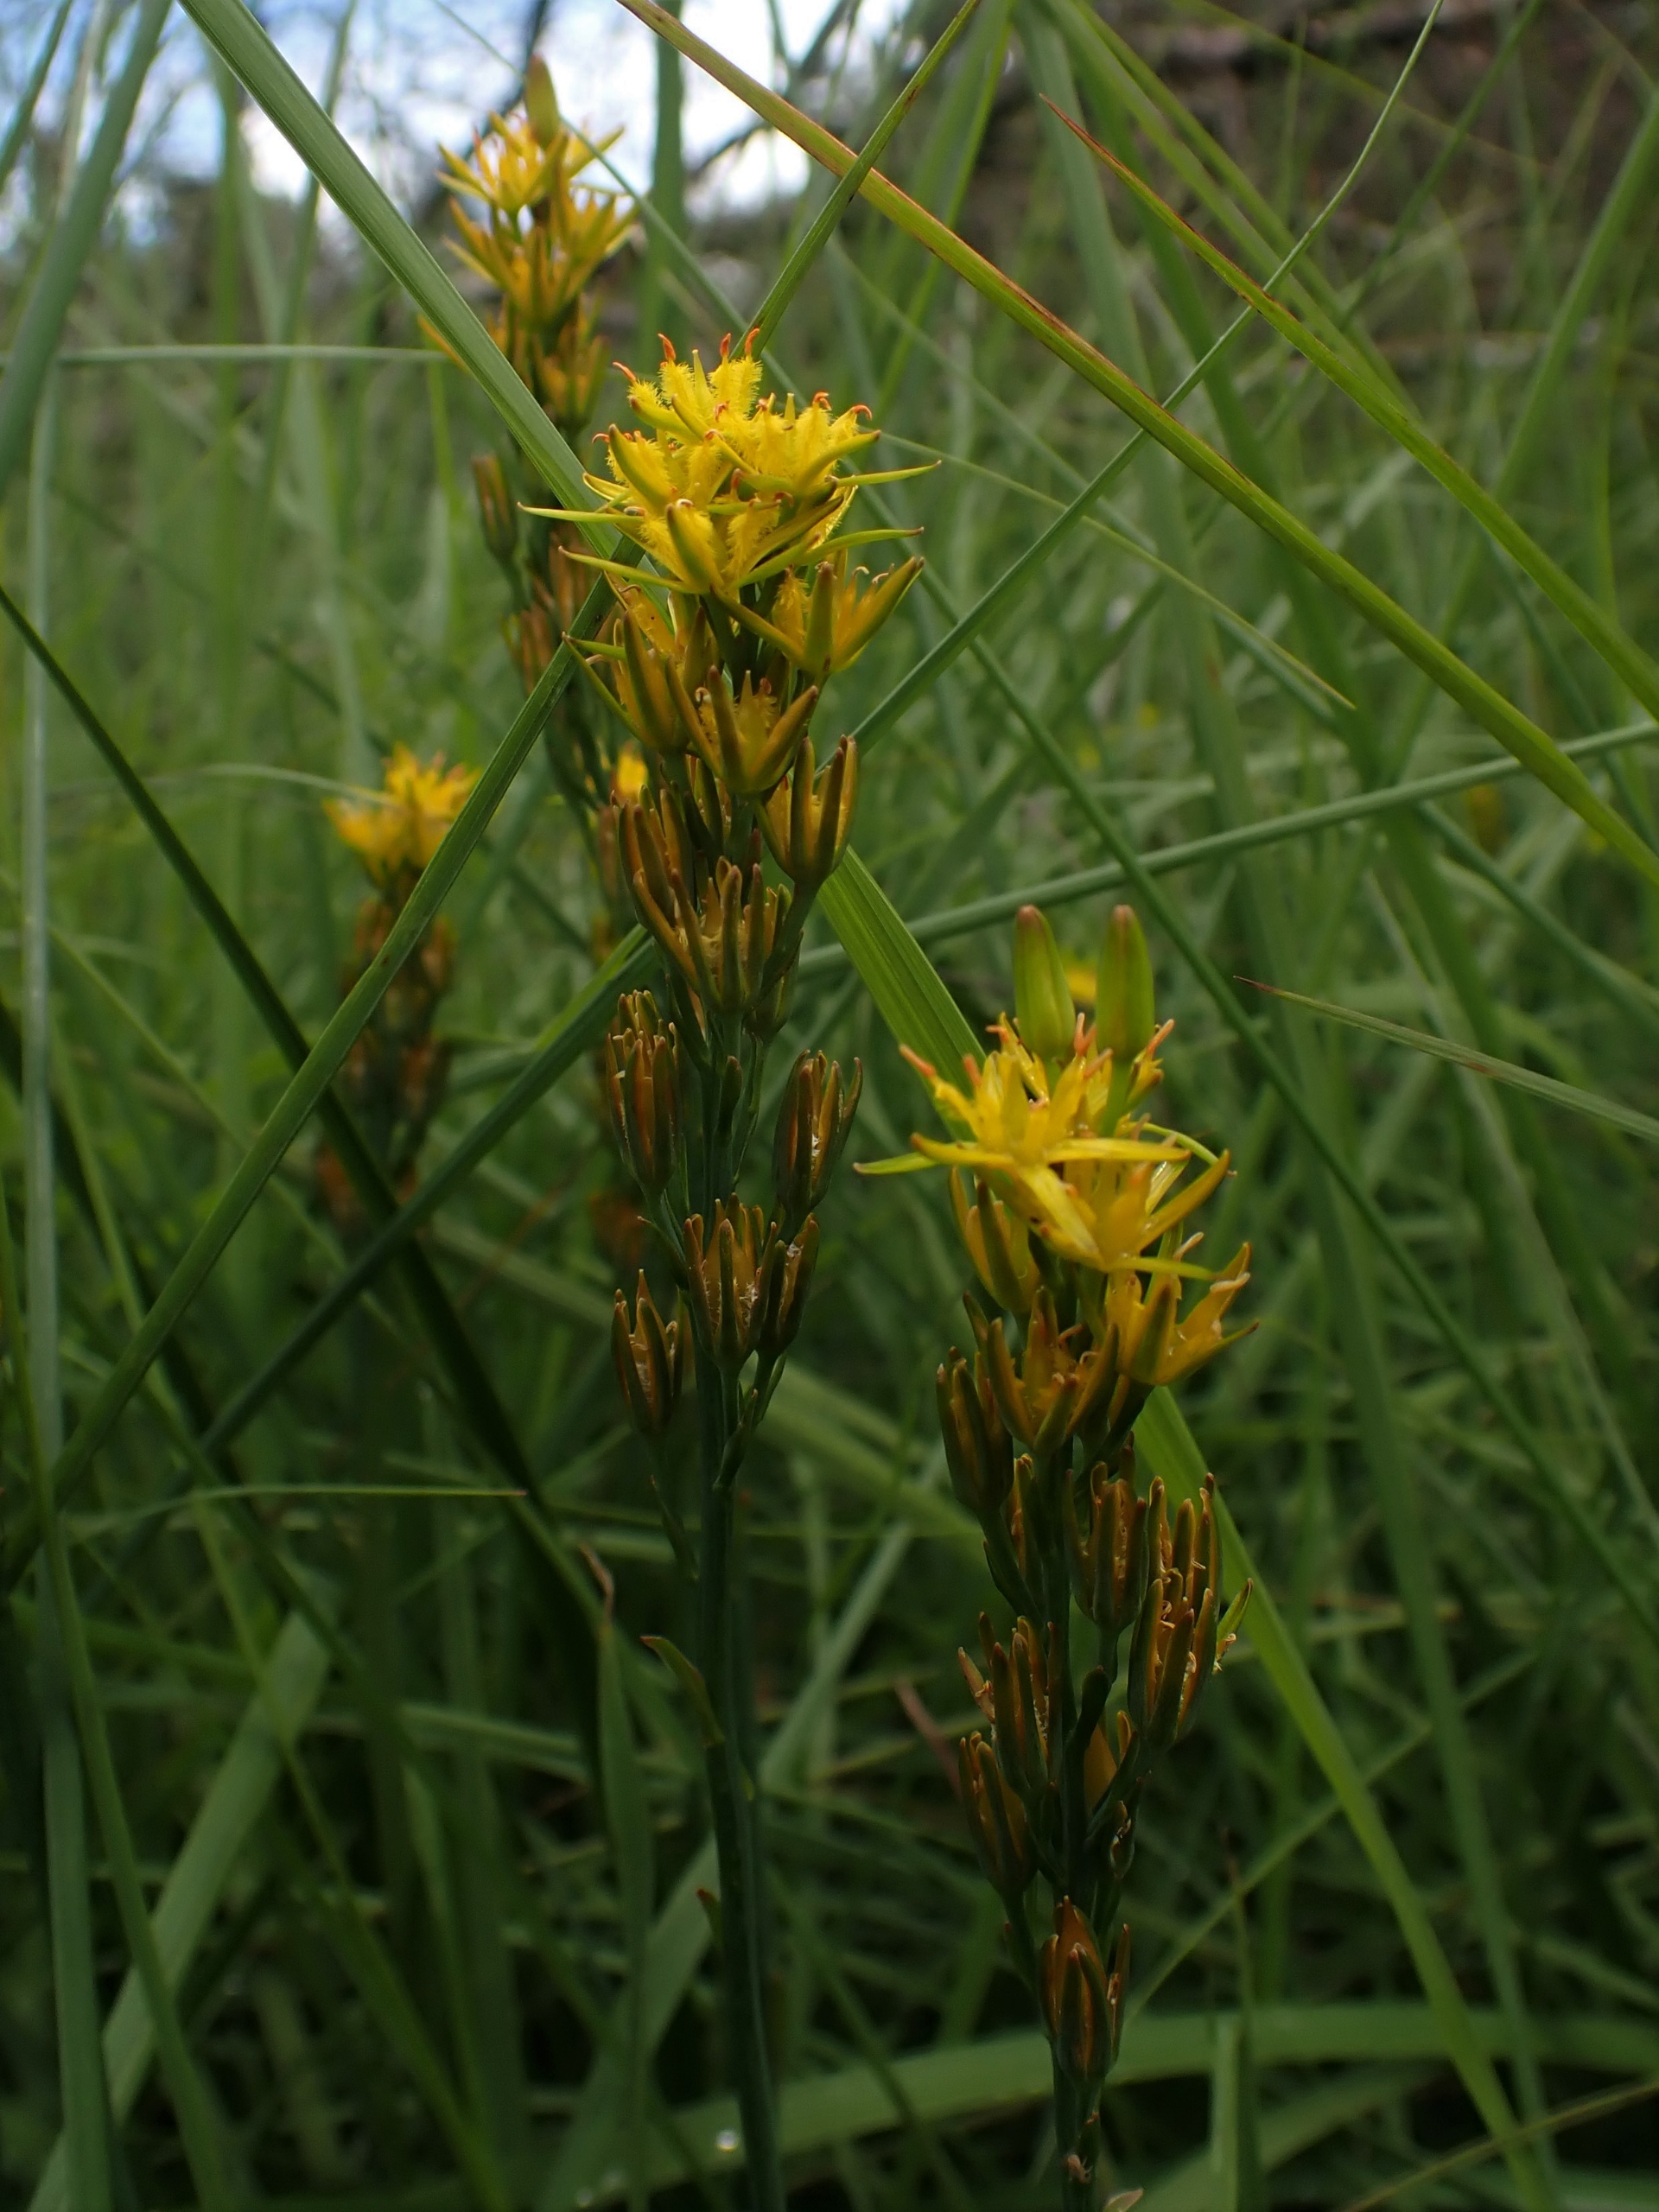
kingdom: Plantae
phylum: Tracheophyta
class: Liliopsida
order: Dioscoreales
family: Nartheciaceae
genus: Narthecium
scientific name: Narthecium ossifragum
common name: Benbræk
